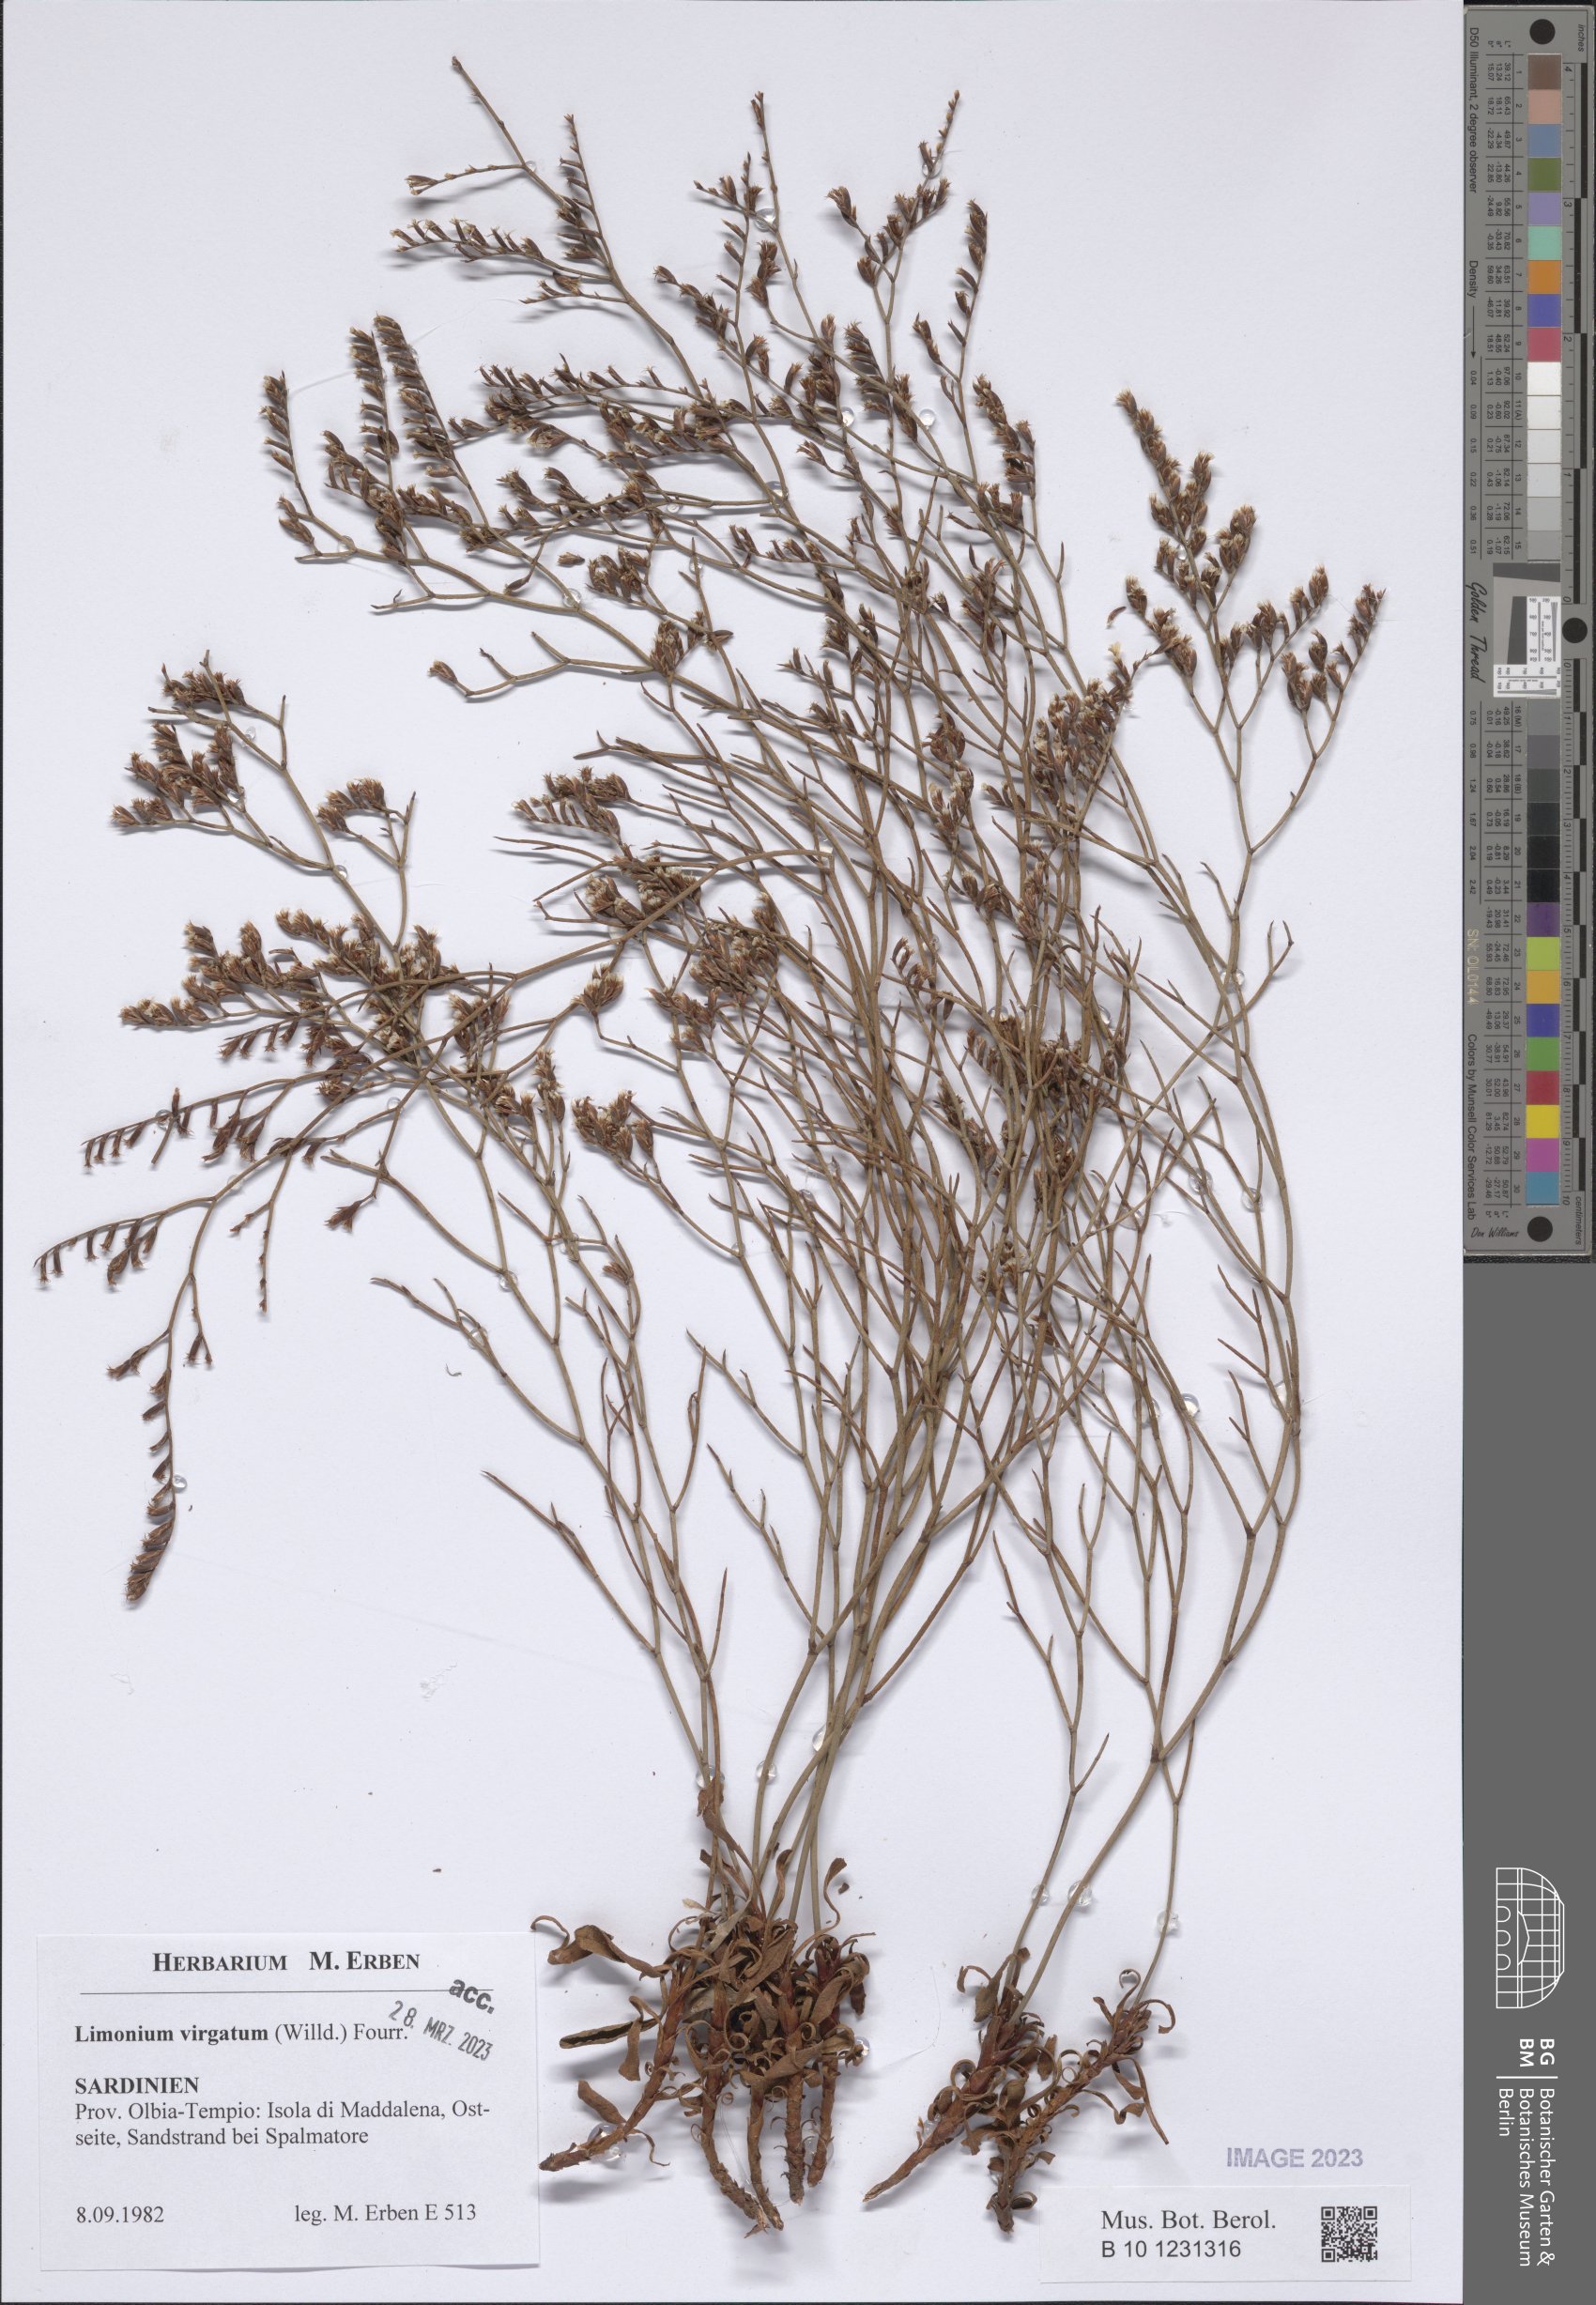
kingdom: Plantae
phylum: Tracheophyta
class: Magnoliopsida
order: Caryophyllales
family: Plumbaginaceae
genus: Limonium
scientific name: Limonium virgatum
